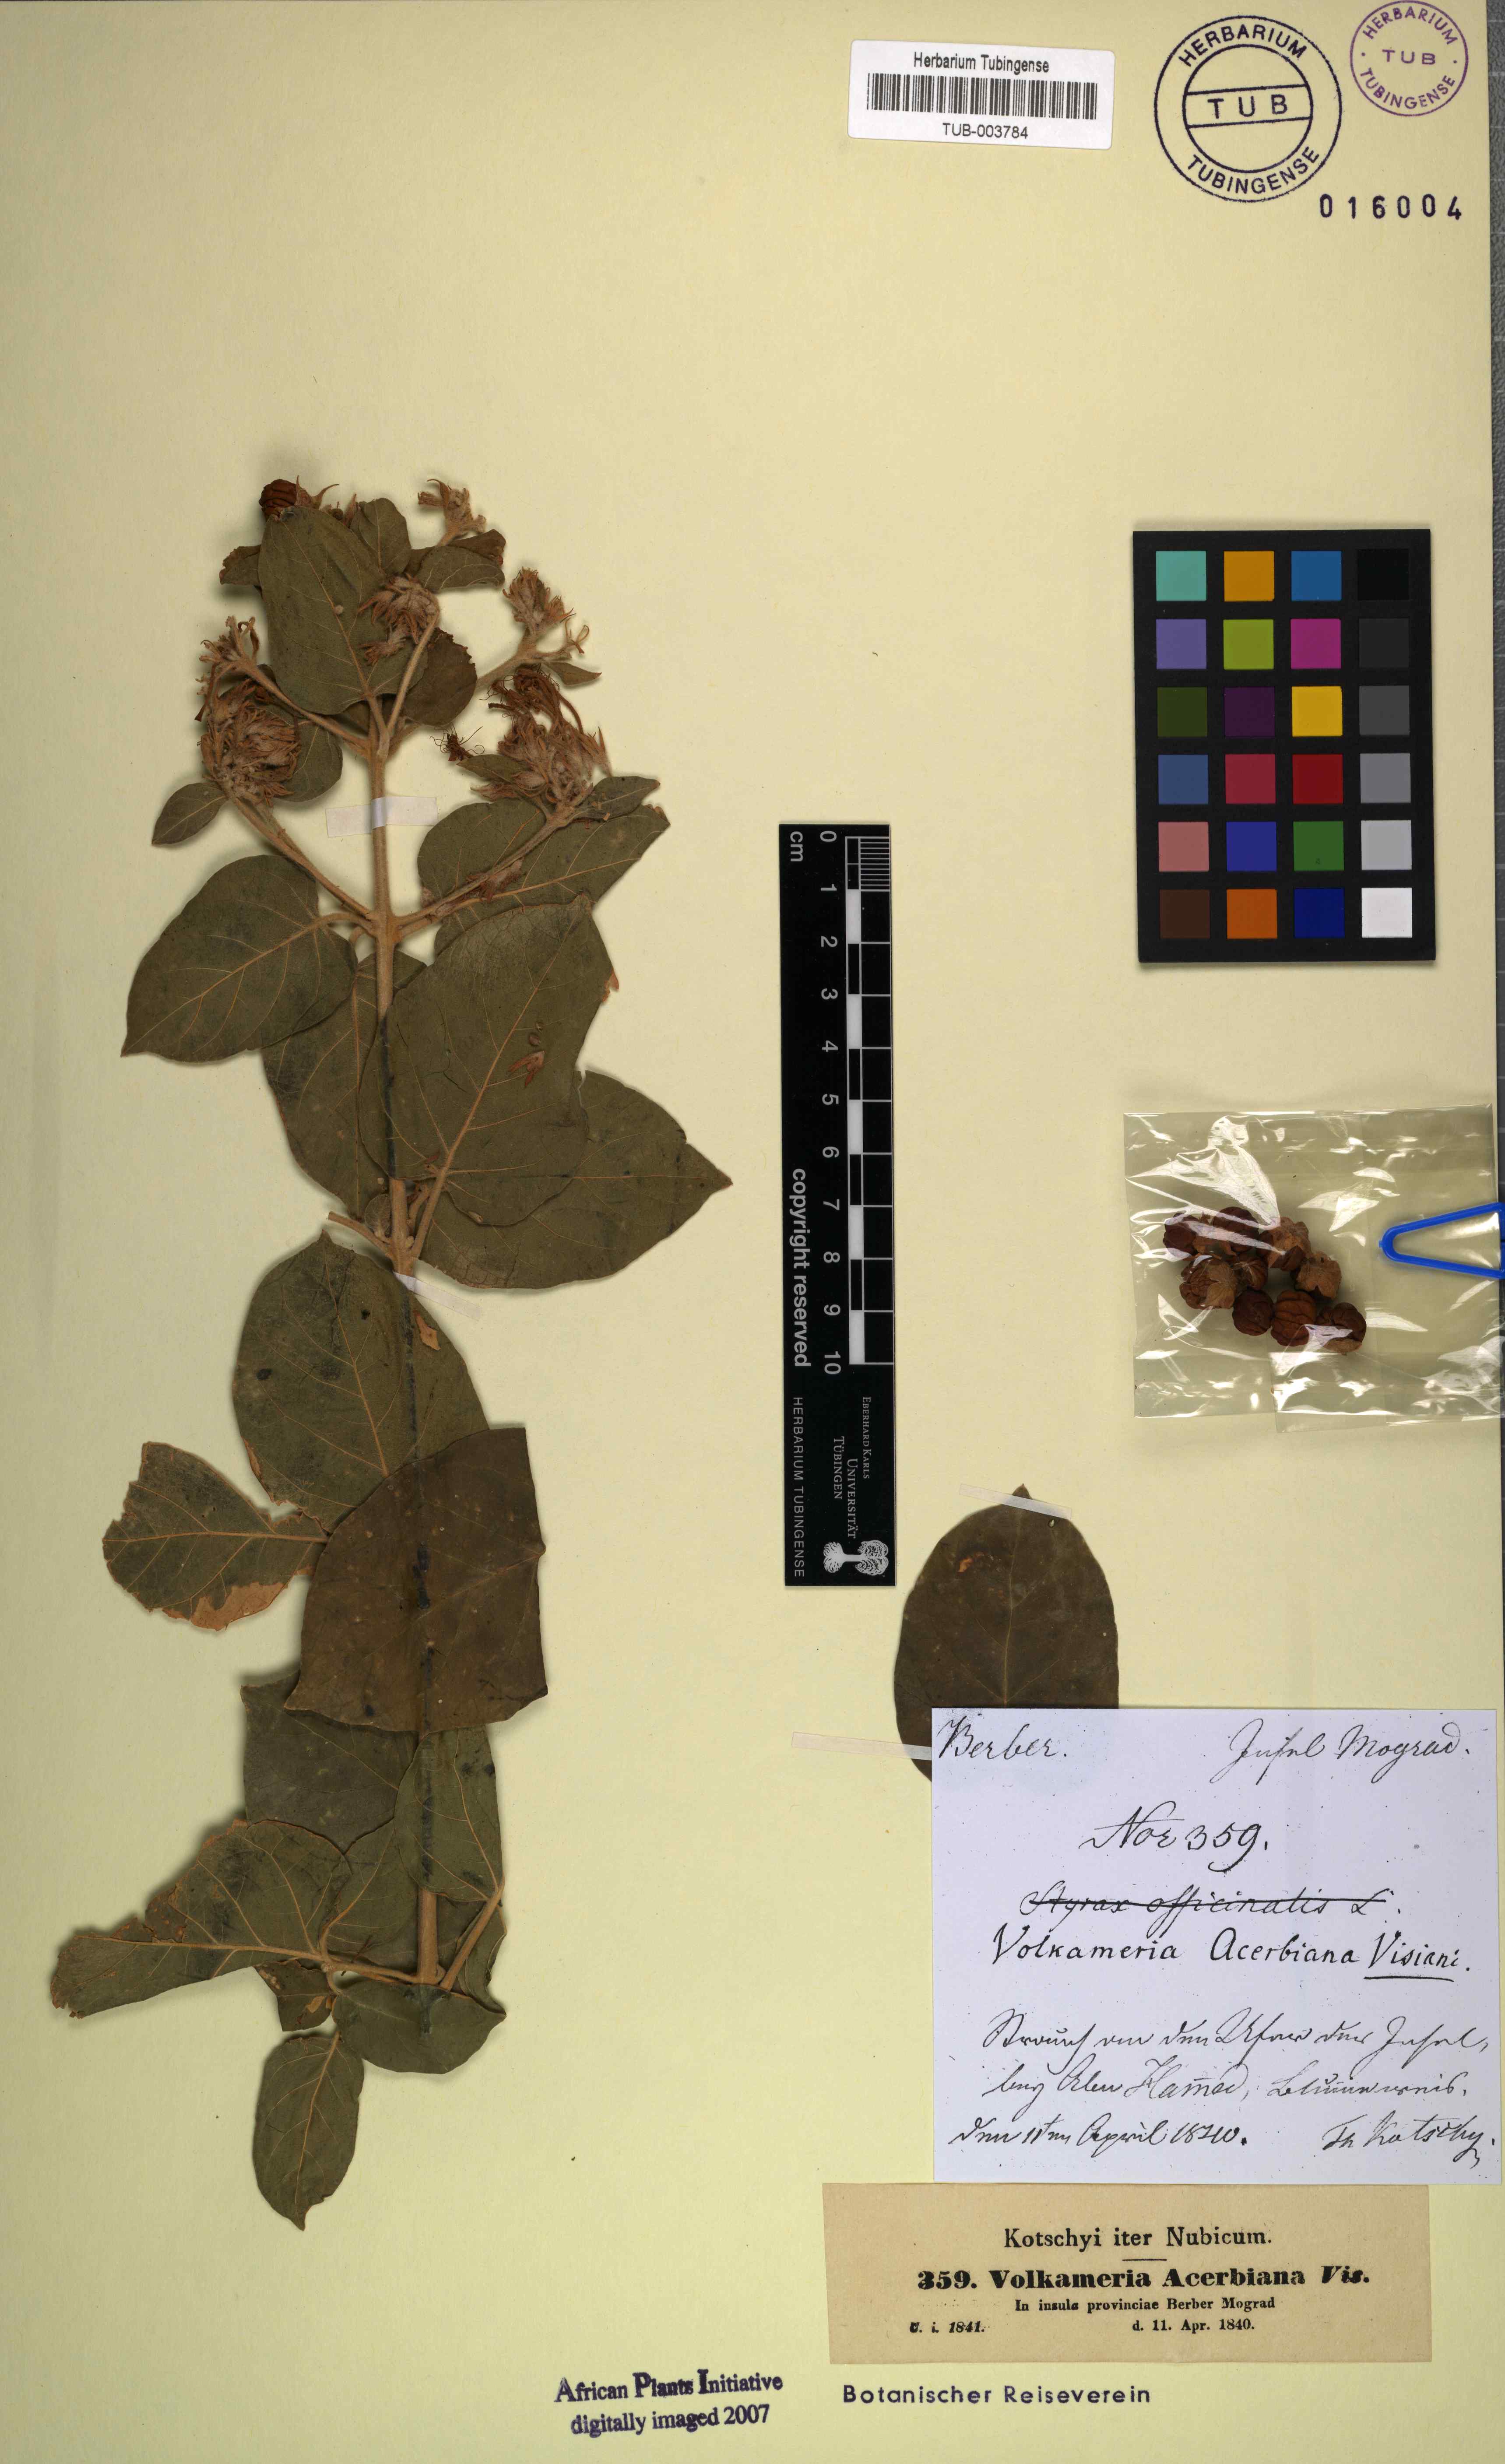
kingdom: Plantae
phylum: Tracheophyta
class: Magnoliopsida
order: Lamiales
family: Lamiaceae
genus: Volkameria
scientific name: Volkameria acerbiana
